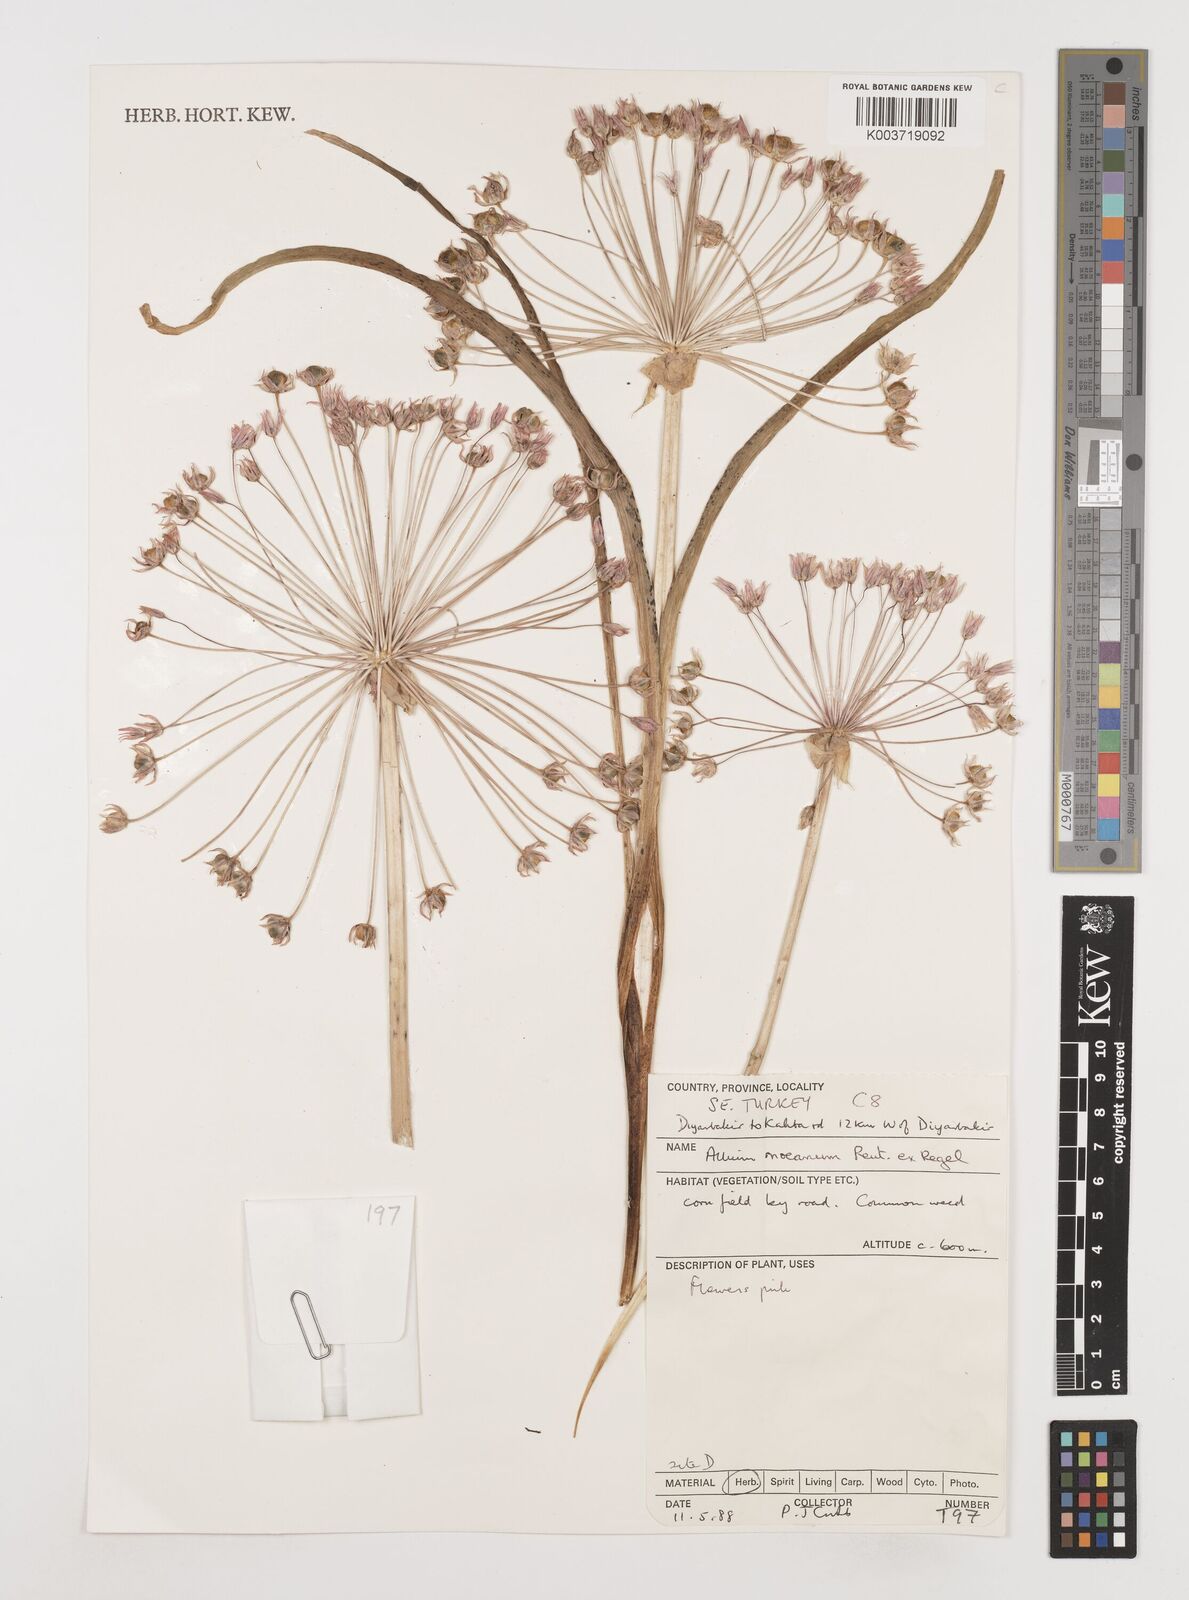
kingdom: Plantae
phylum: Tracheophyta
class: Liliopsida
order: Asparagales
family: Amaryllidaceae
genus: Allium
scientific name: Allium noeanum
